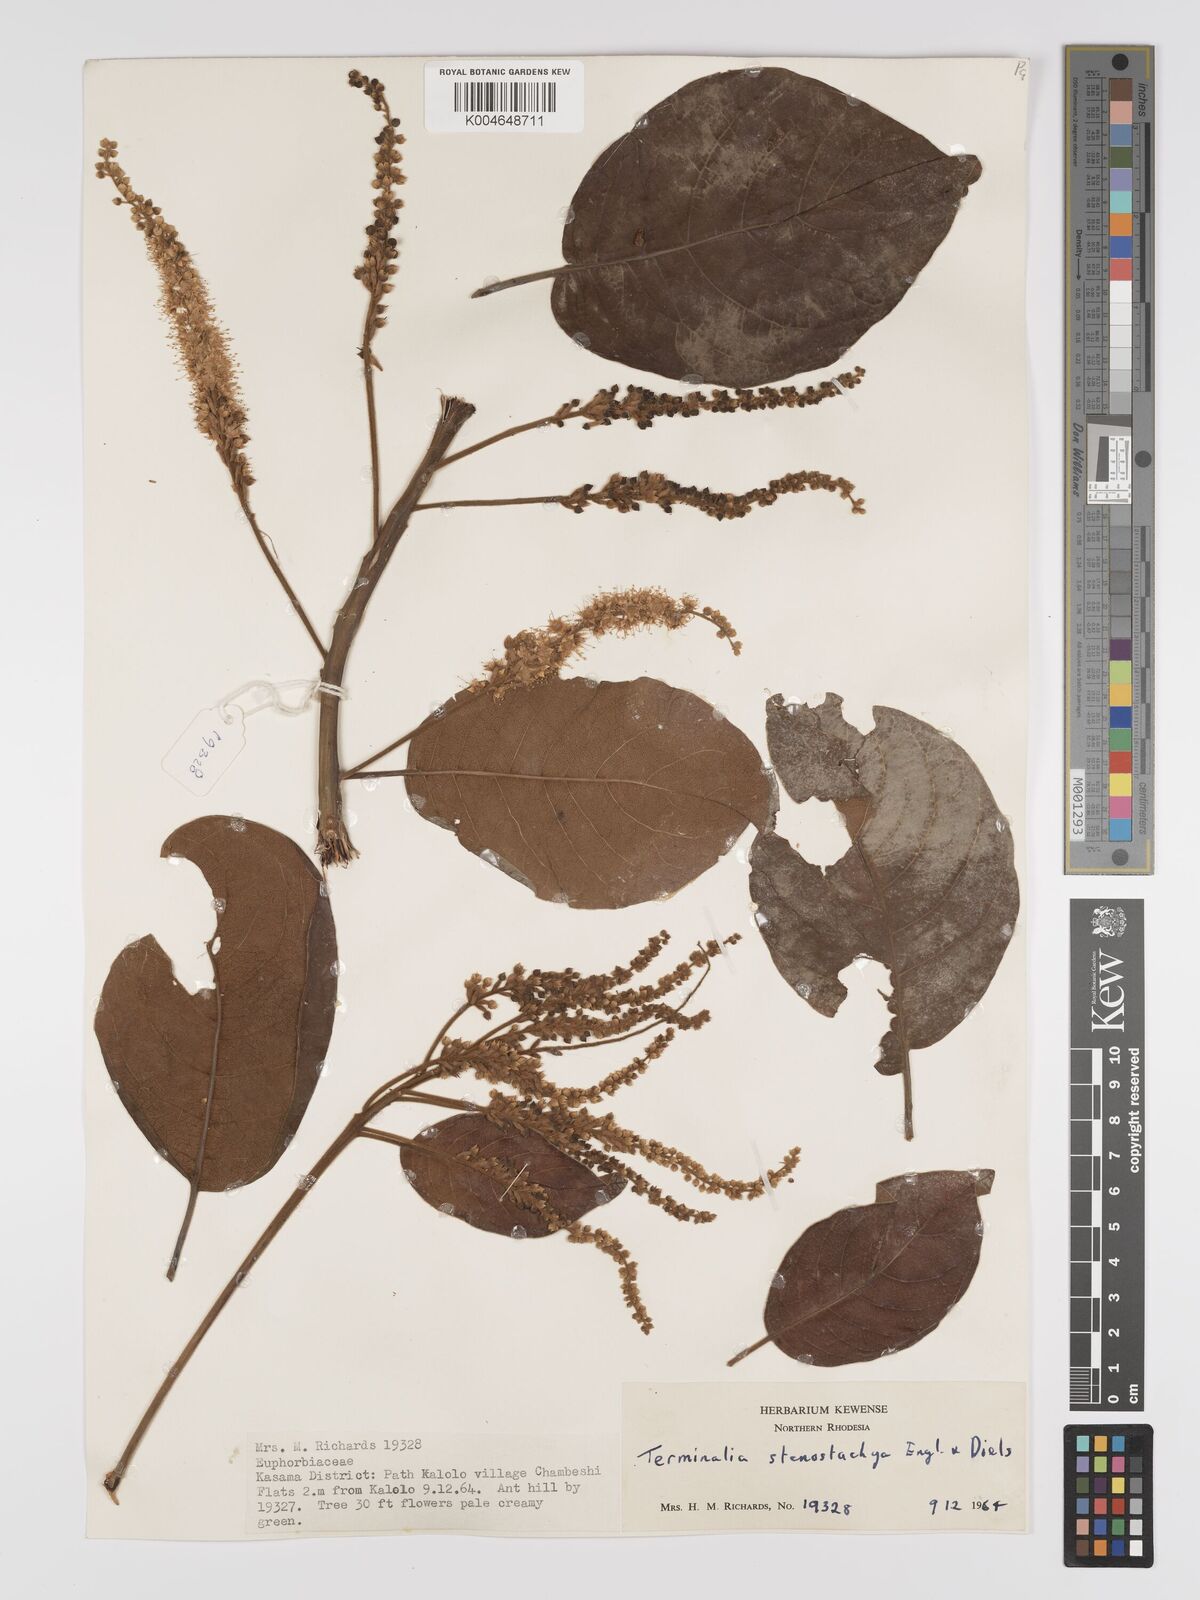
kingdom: Plantae
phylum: Tracheophyta
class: Magnoliopsida
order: Myrtales
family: Combretaceae
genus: Terminalia
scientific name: Terminalia stenostachya
